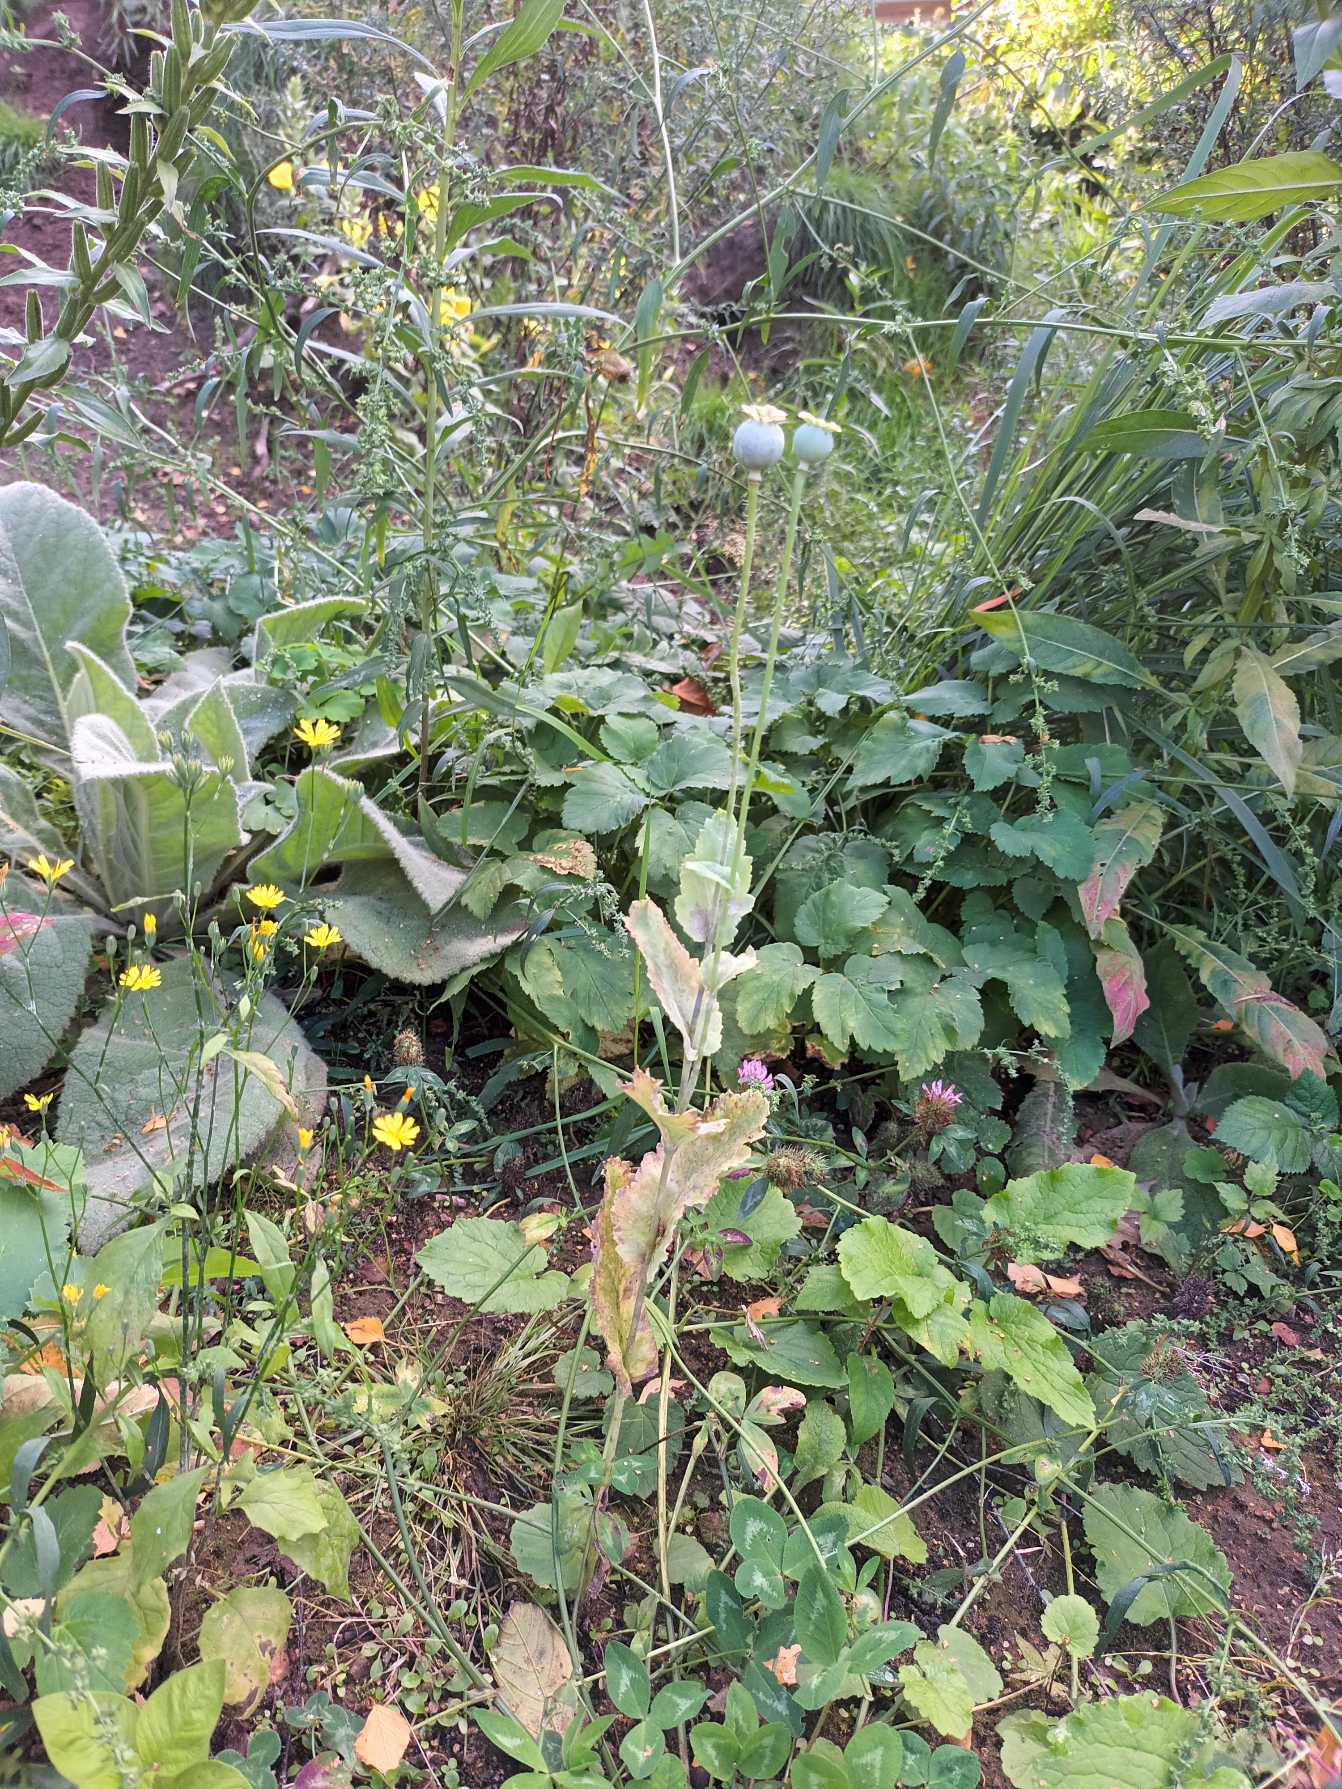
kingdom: Plantae
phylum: Tracheophyta
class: Magnoliopsida
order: Ranunculales
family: Papaveraceae
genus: Papaver
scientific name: Papaver somniferum
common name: Opium-valmue
